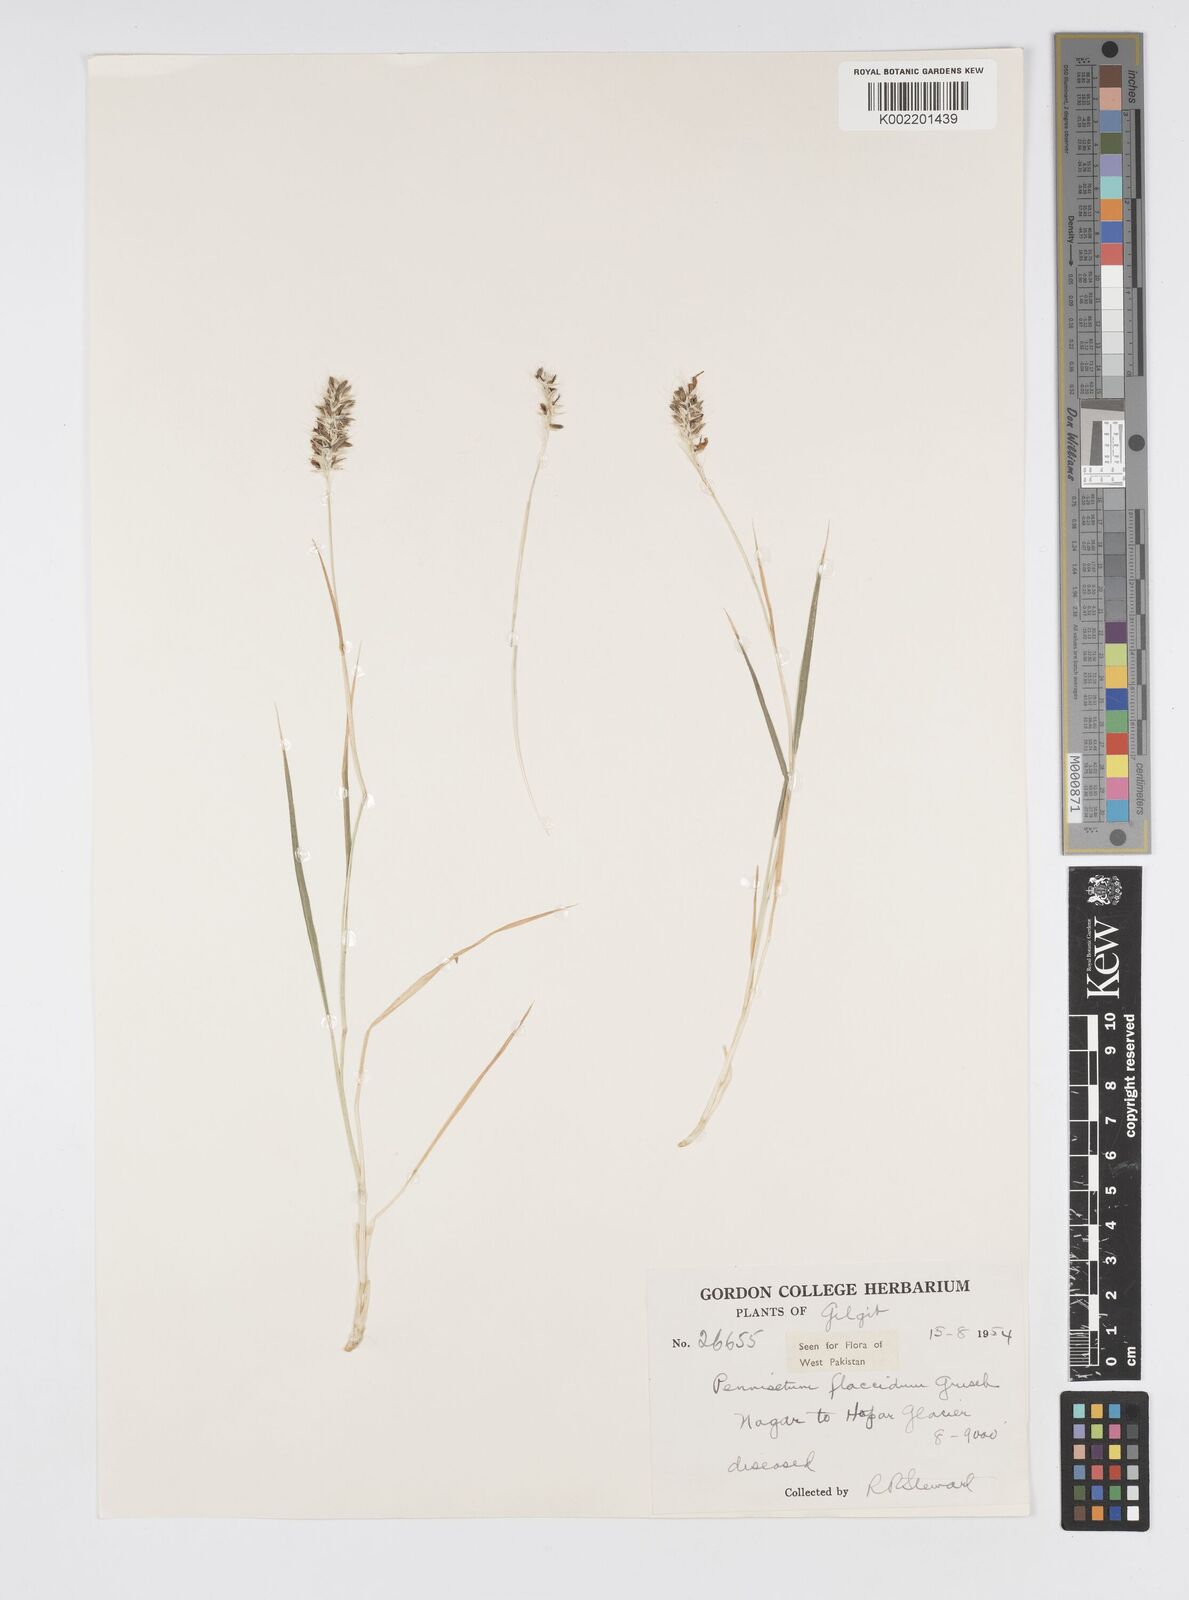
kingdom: Plantae
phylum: Tracheophyta
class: Liliopsida
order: Poales
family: Poaceae
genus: Cenchrus
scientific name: Cenchrus flaccidus
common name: Flaccid grass
